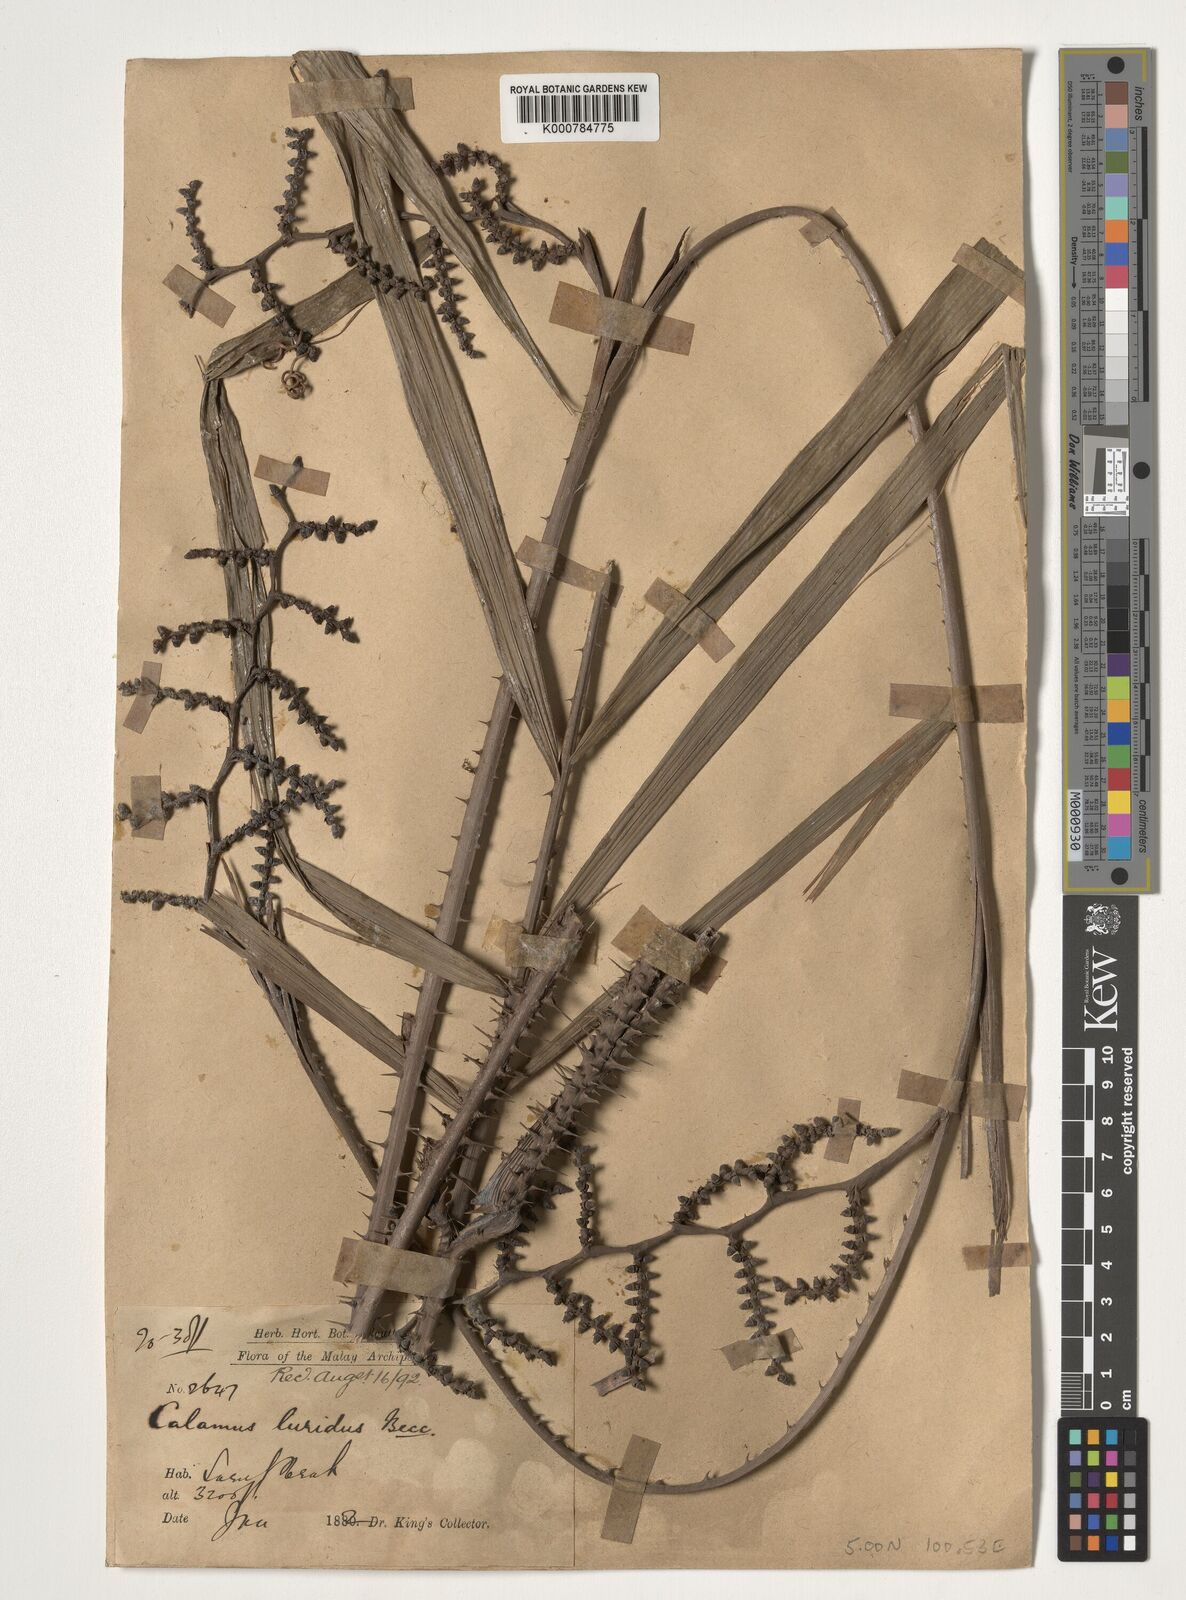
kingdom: Plantae
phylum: Tracheophyta
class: Liliopsida
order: Arecales
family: Arecaceae
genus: Calamus
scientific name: Calamus micranthus
